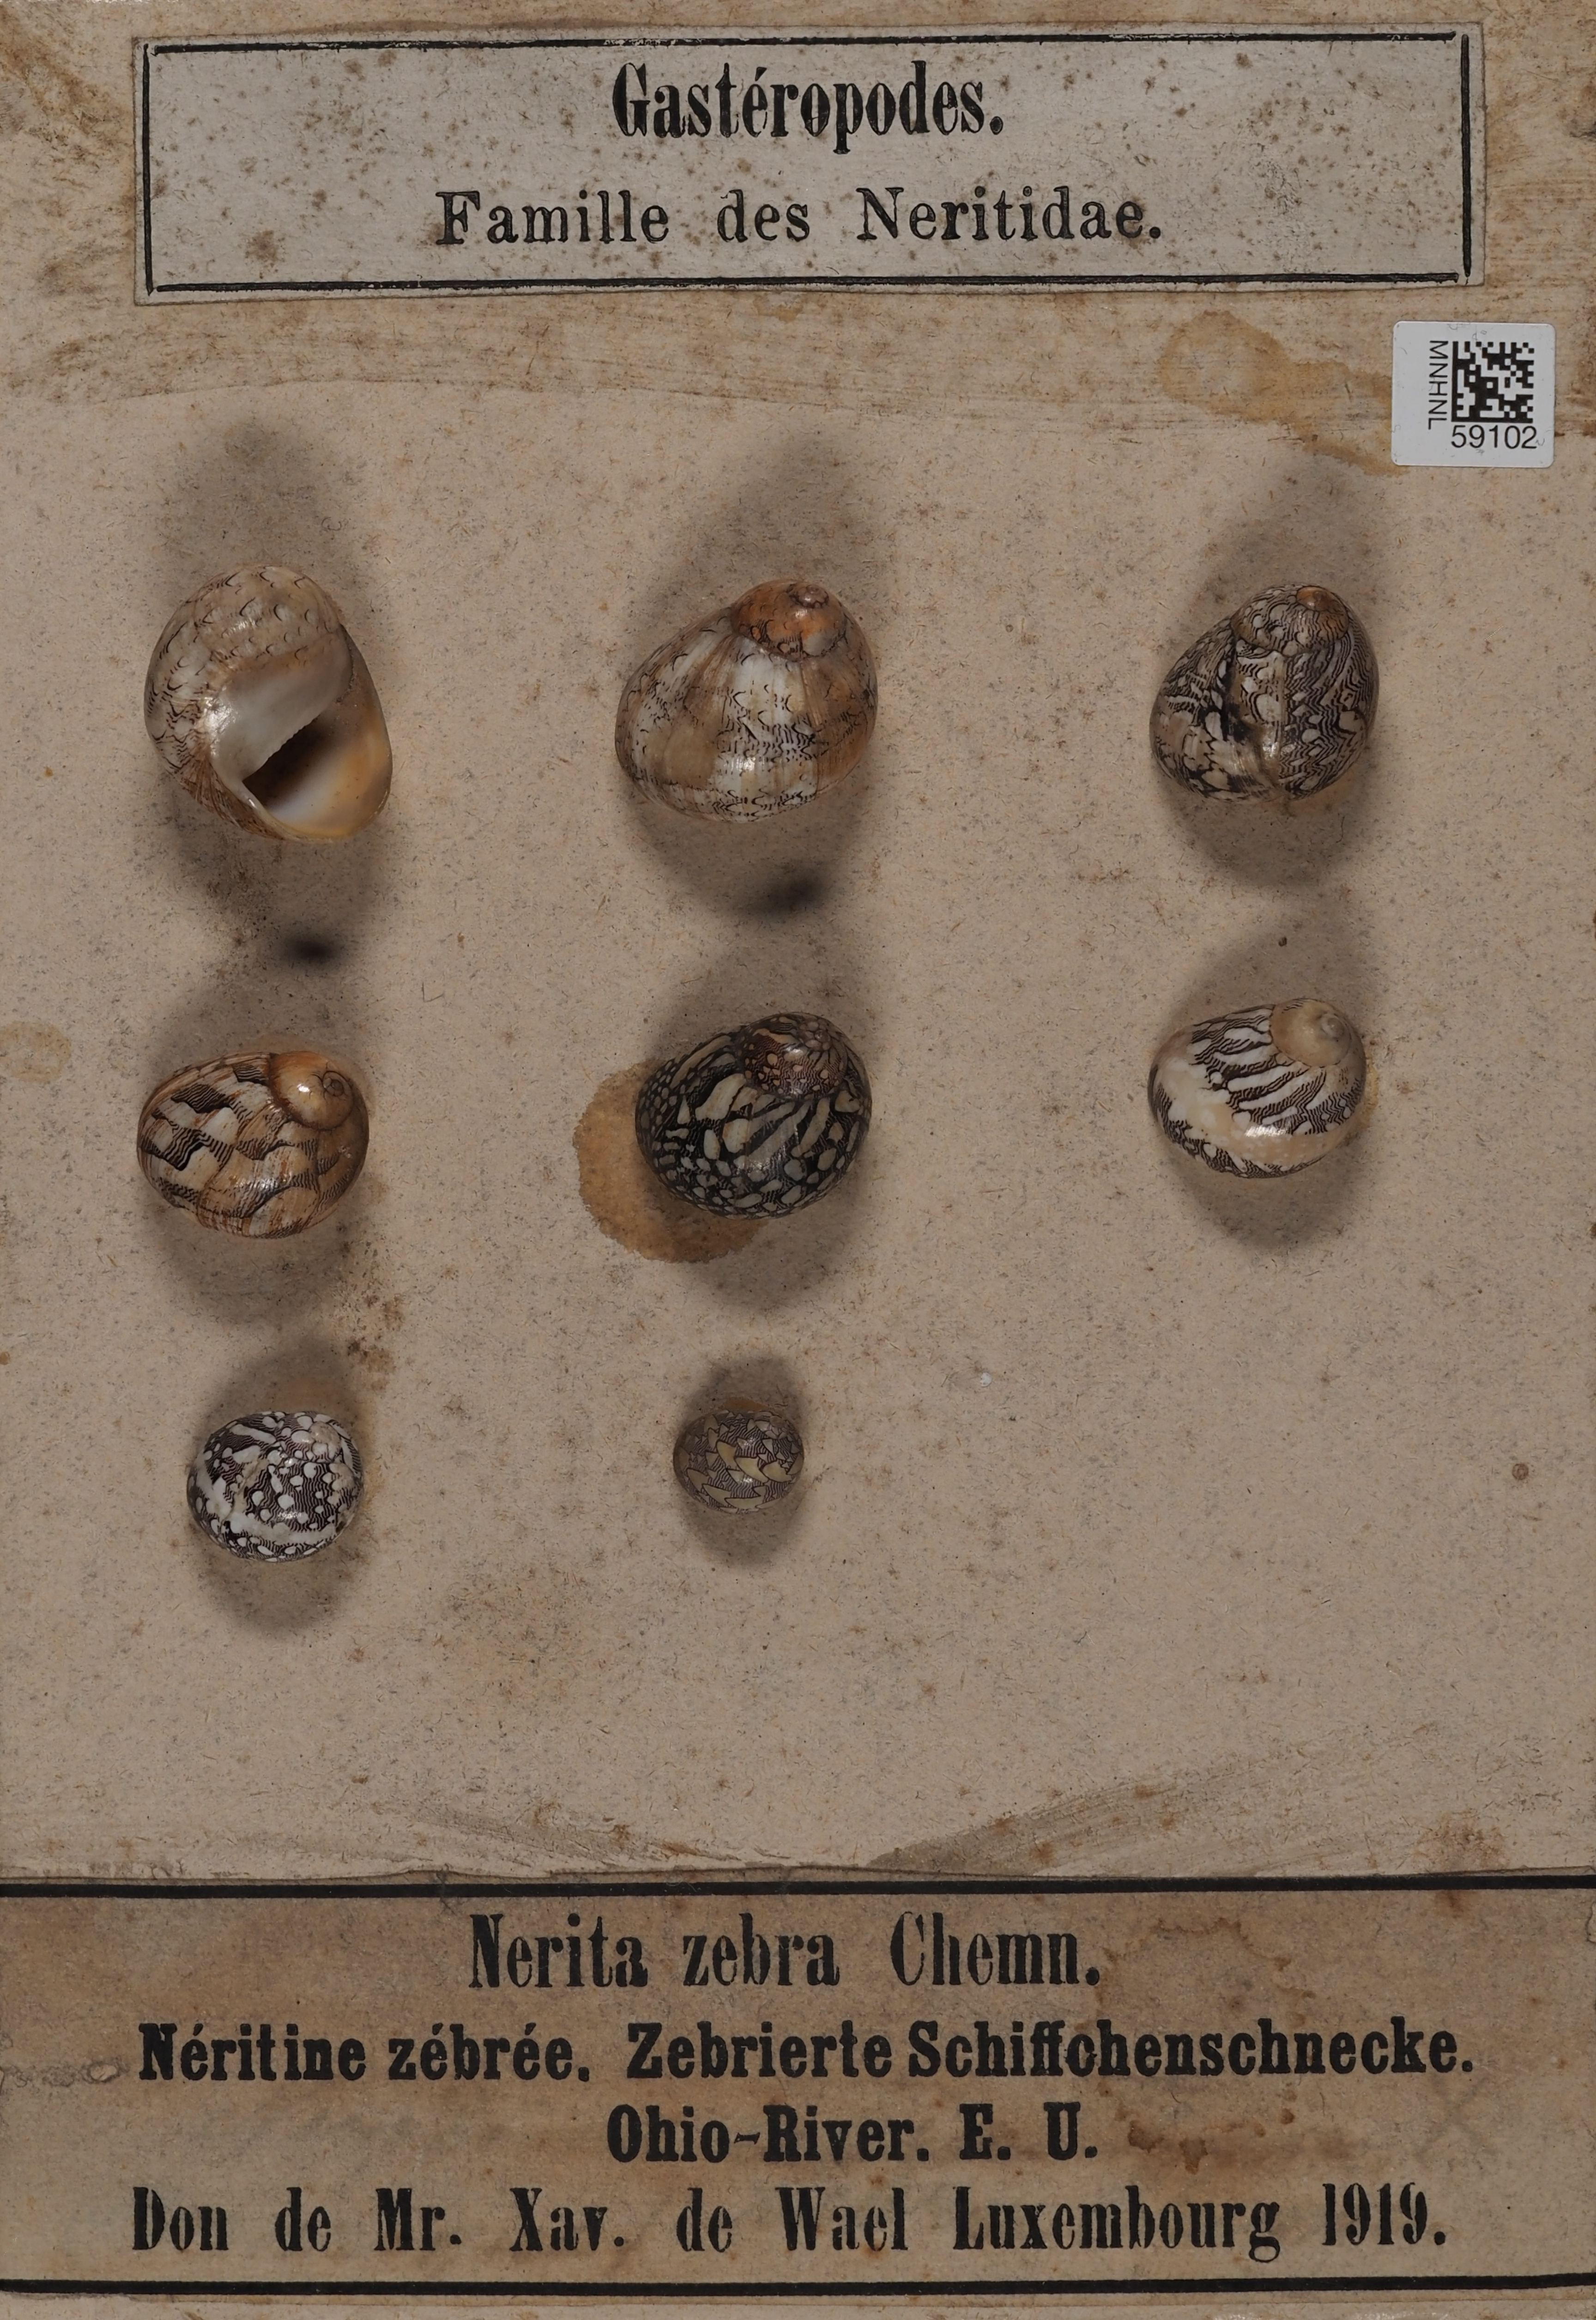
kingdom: Animalia
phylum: Mollusca
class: Gastropoda
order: Cycloneritida
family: Neritidae
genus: Vitta
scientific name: Vitta zebra
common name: Zebra neritina
